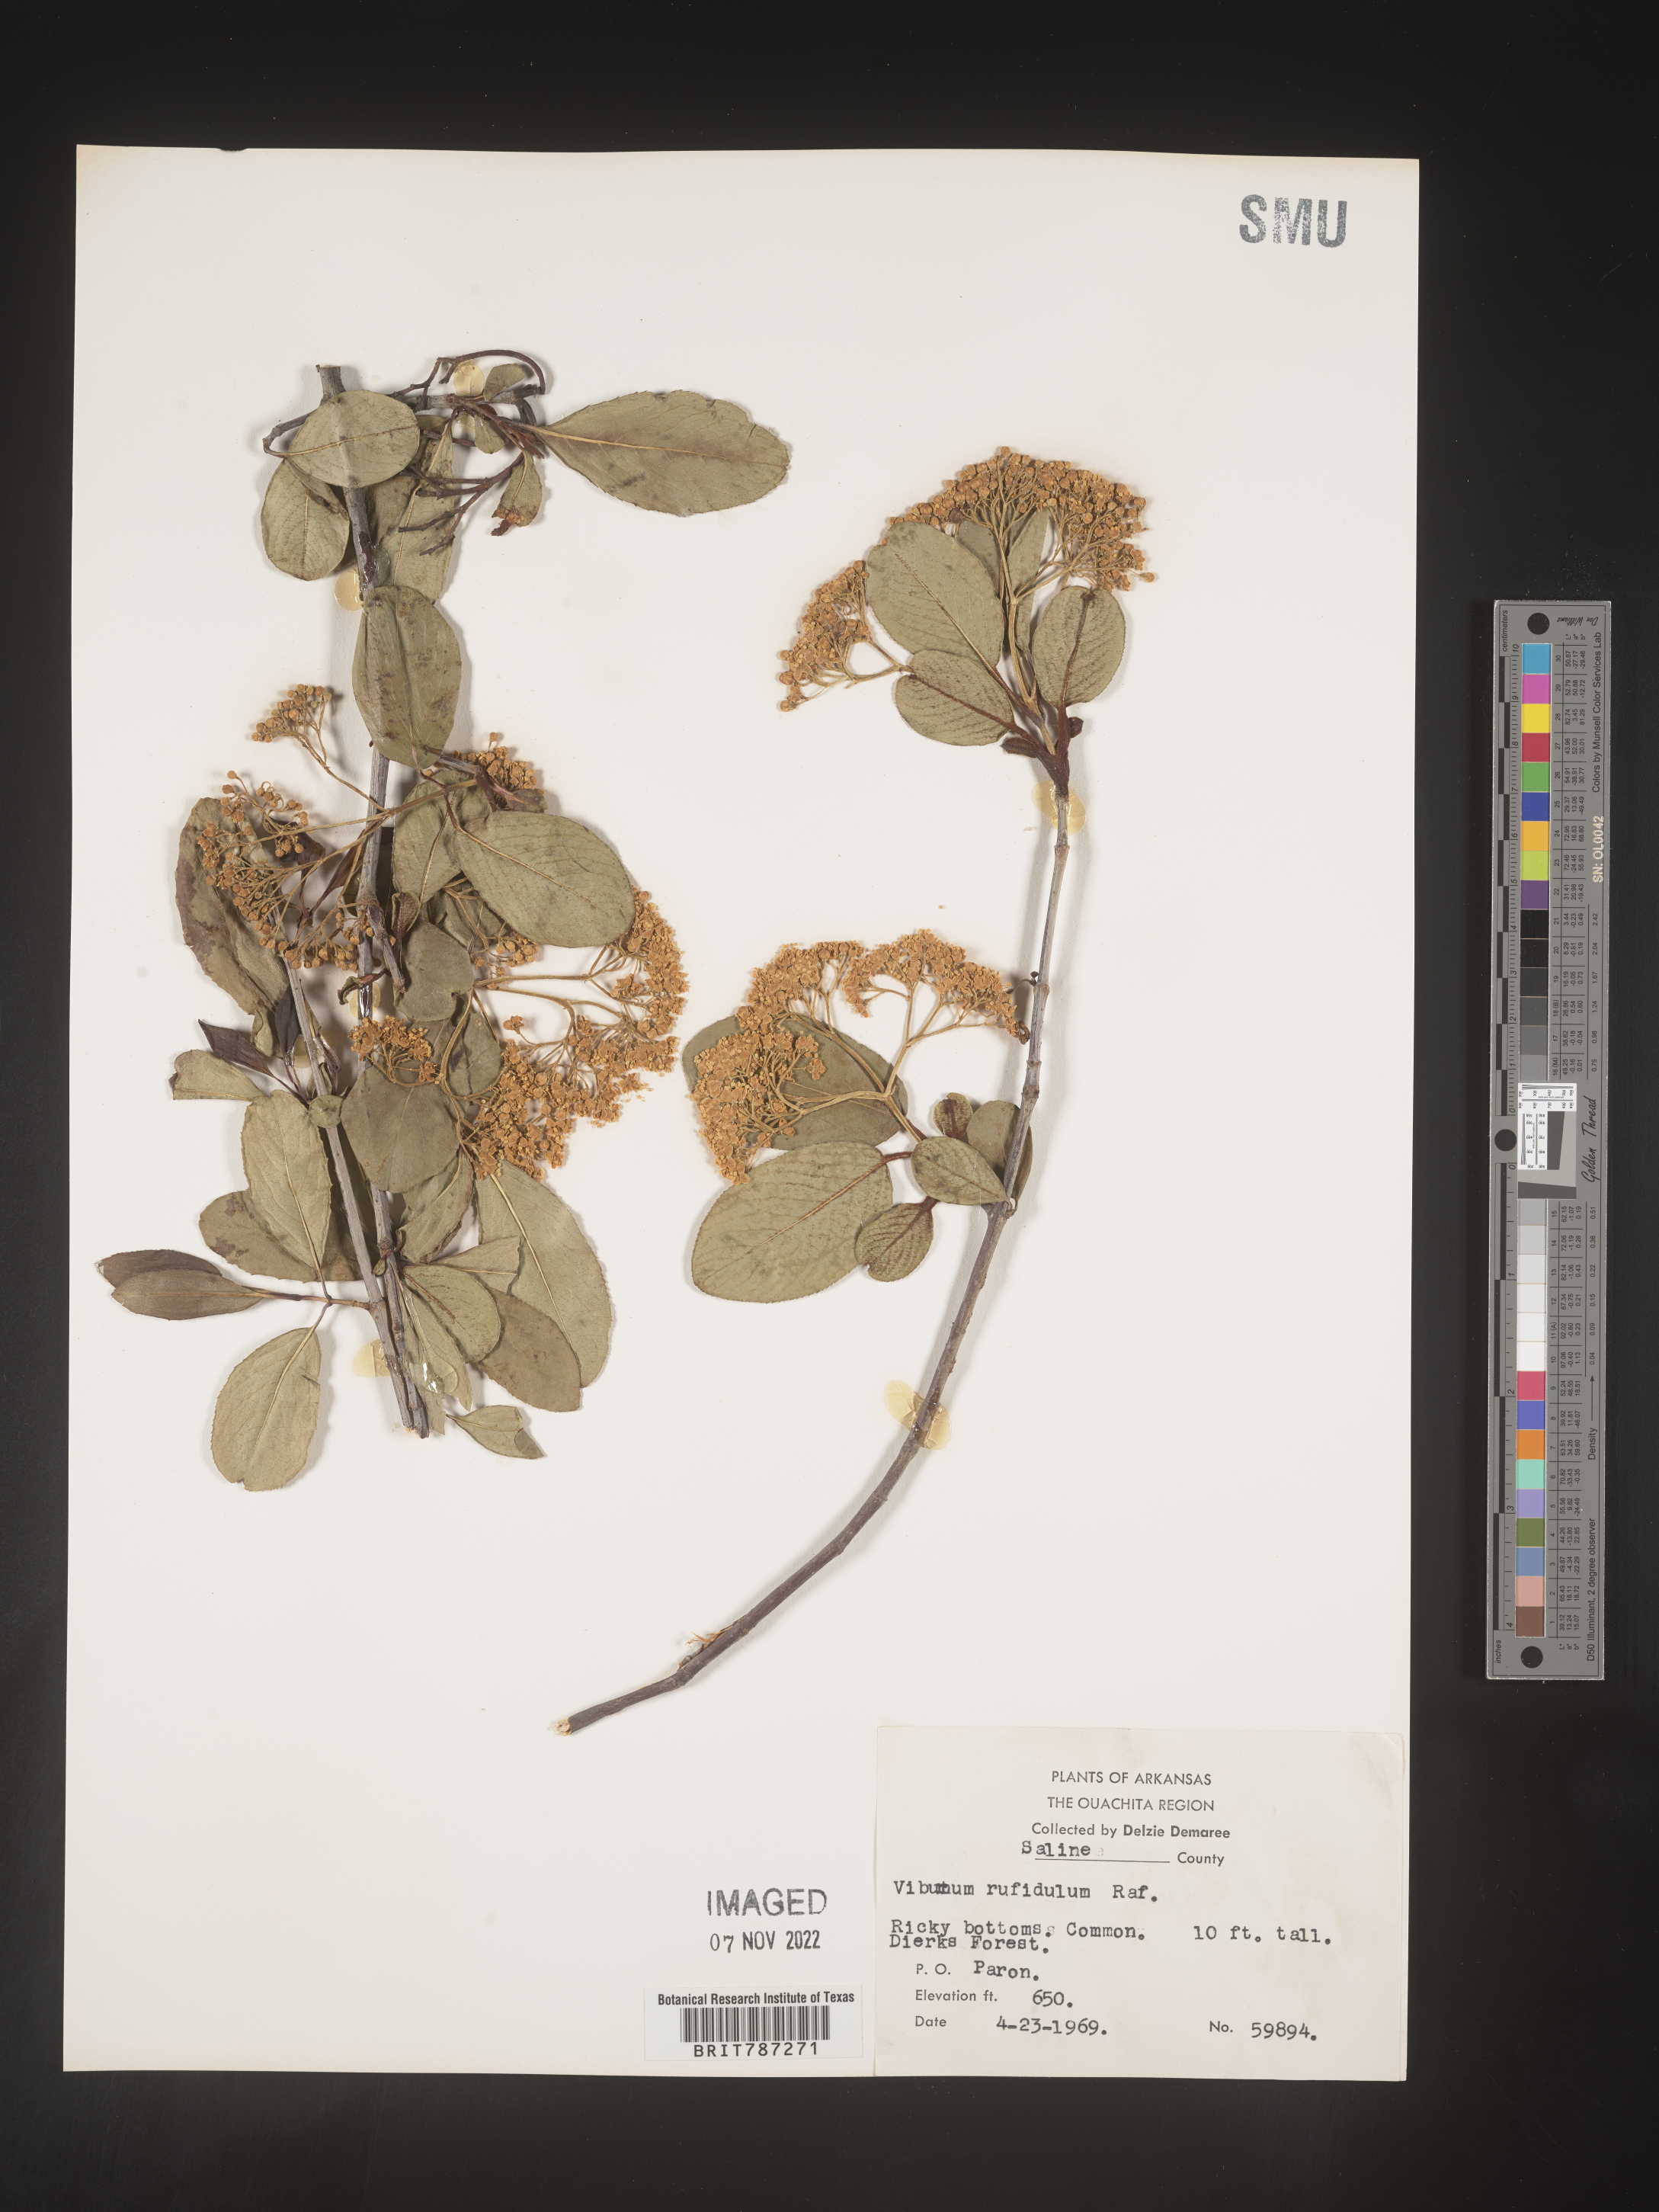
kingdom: Plantae
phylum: Tracheophyta
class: Magnoliopsida
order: Dipsacales
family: Viburnaceae
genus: Viburnum
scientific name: Viburnum rufidulum
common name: Blue haw
